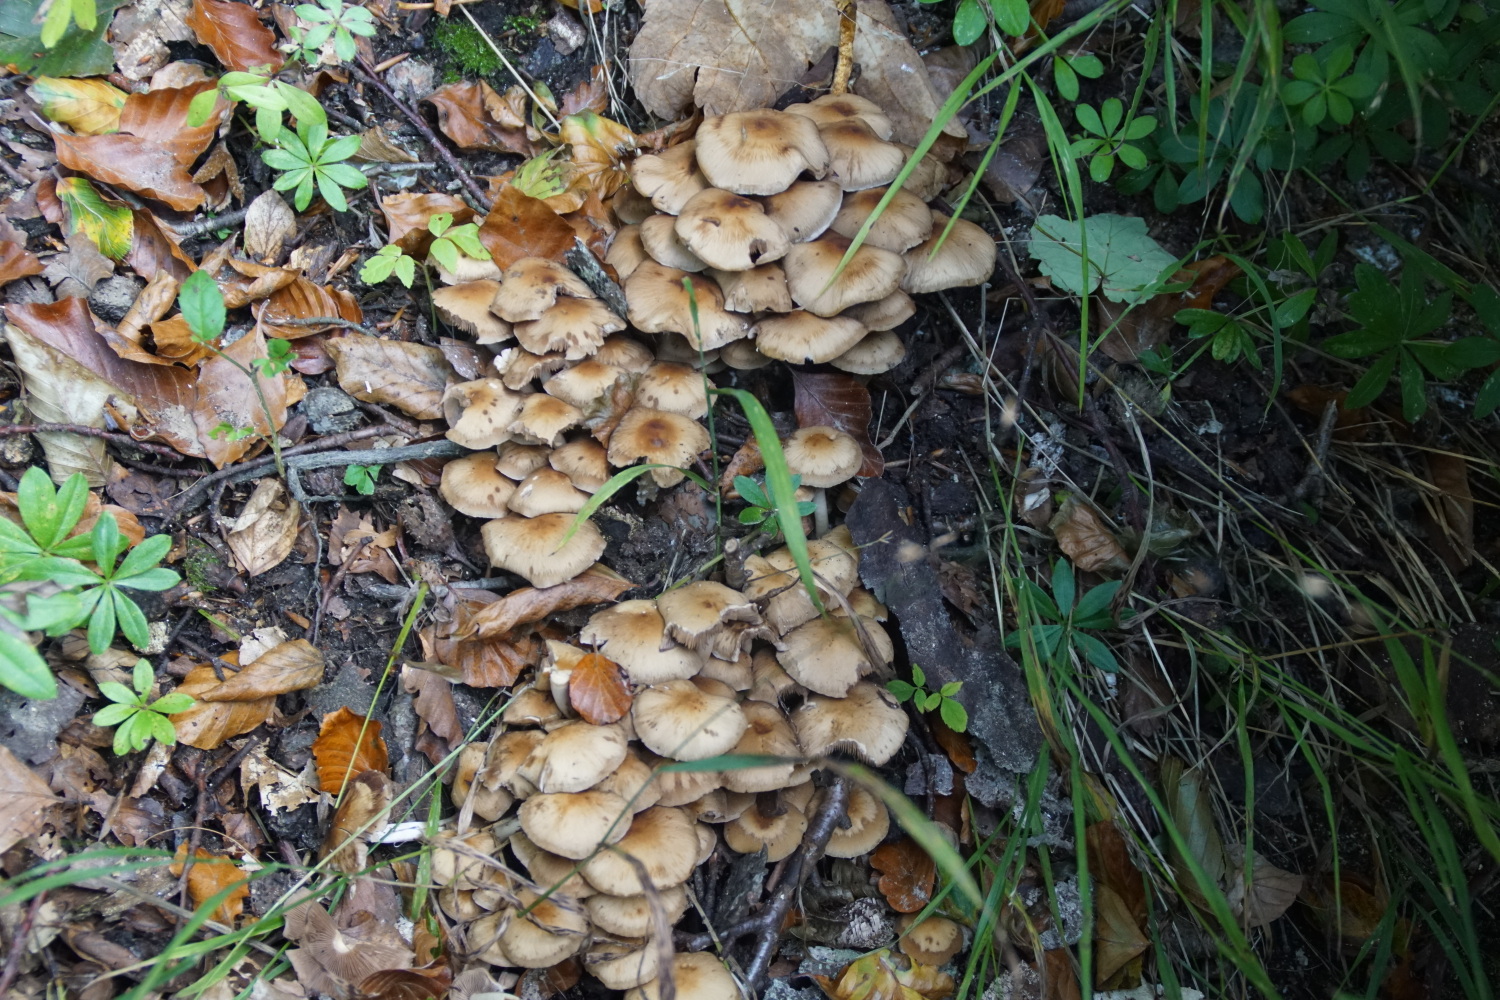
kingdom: Fungi
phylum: Basidiomycota
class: Agaricomycetes
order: Agaricales
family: Psathyrellaceae
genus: Psathyrella
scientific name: Psathyrella piluliformis
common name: lysstokket mørkhat
